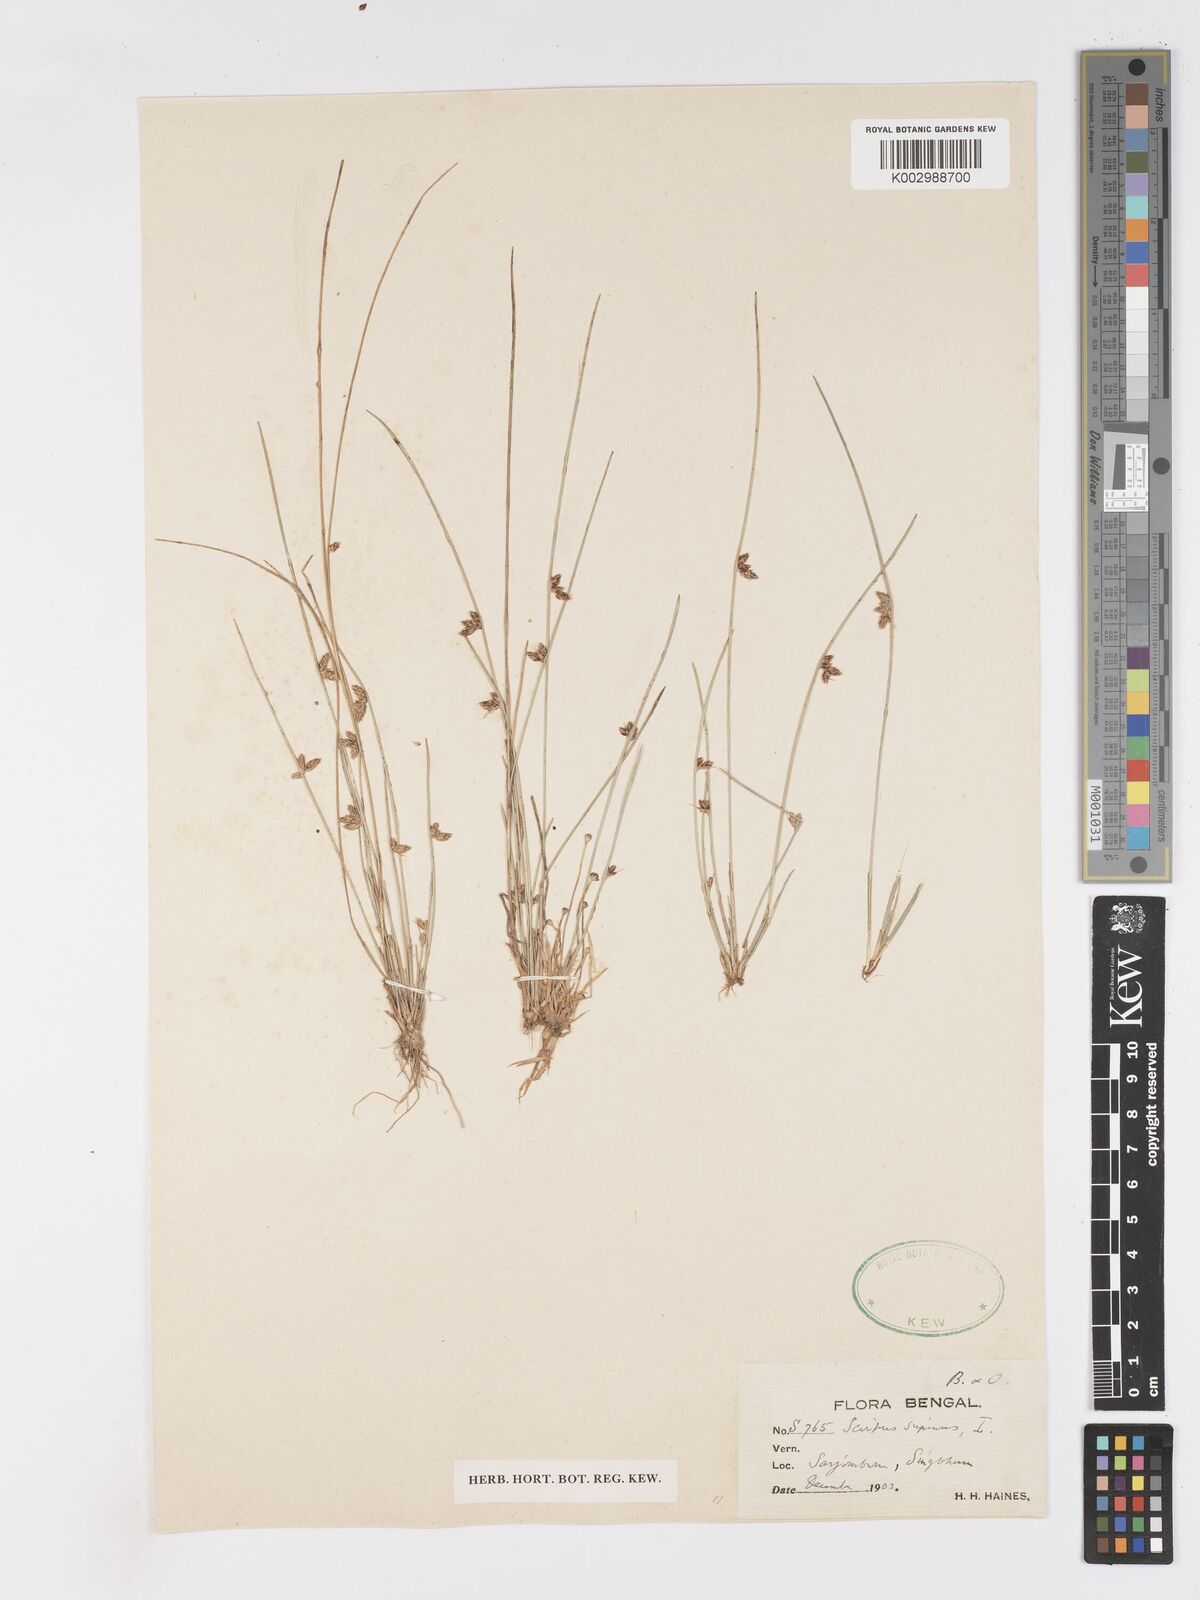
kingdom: Plantae
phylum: Tracheophyta
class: Liliopsida
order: Poales
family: Cyperaceae
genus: Schoenoplectiella
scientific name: Schoenoplectiella lateriflora
